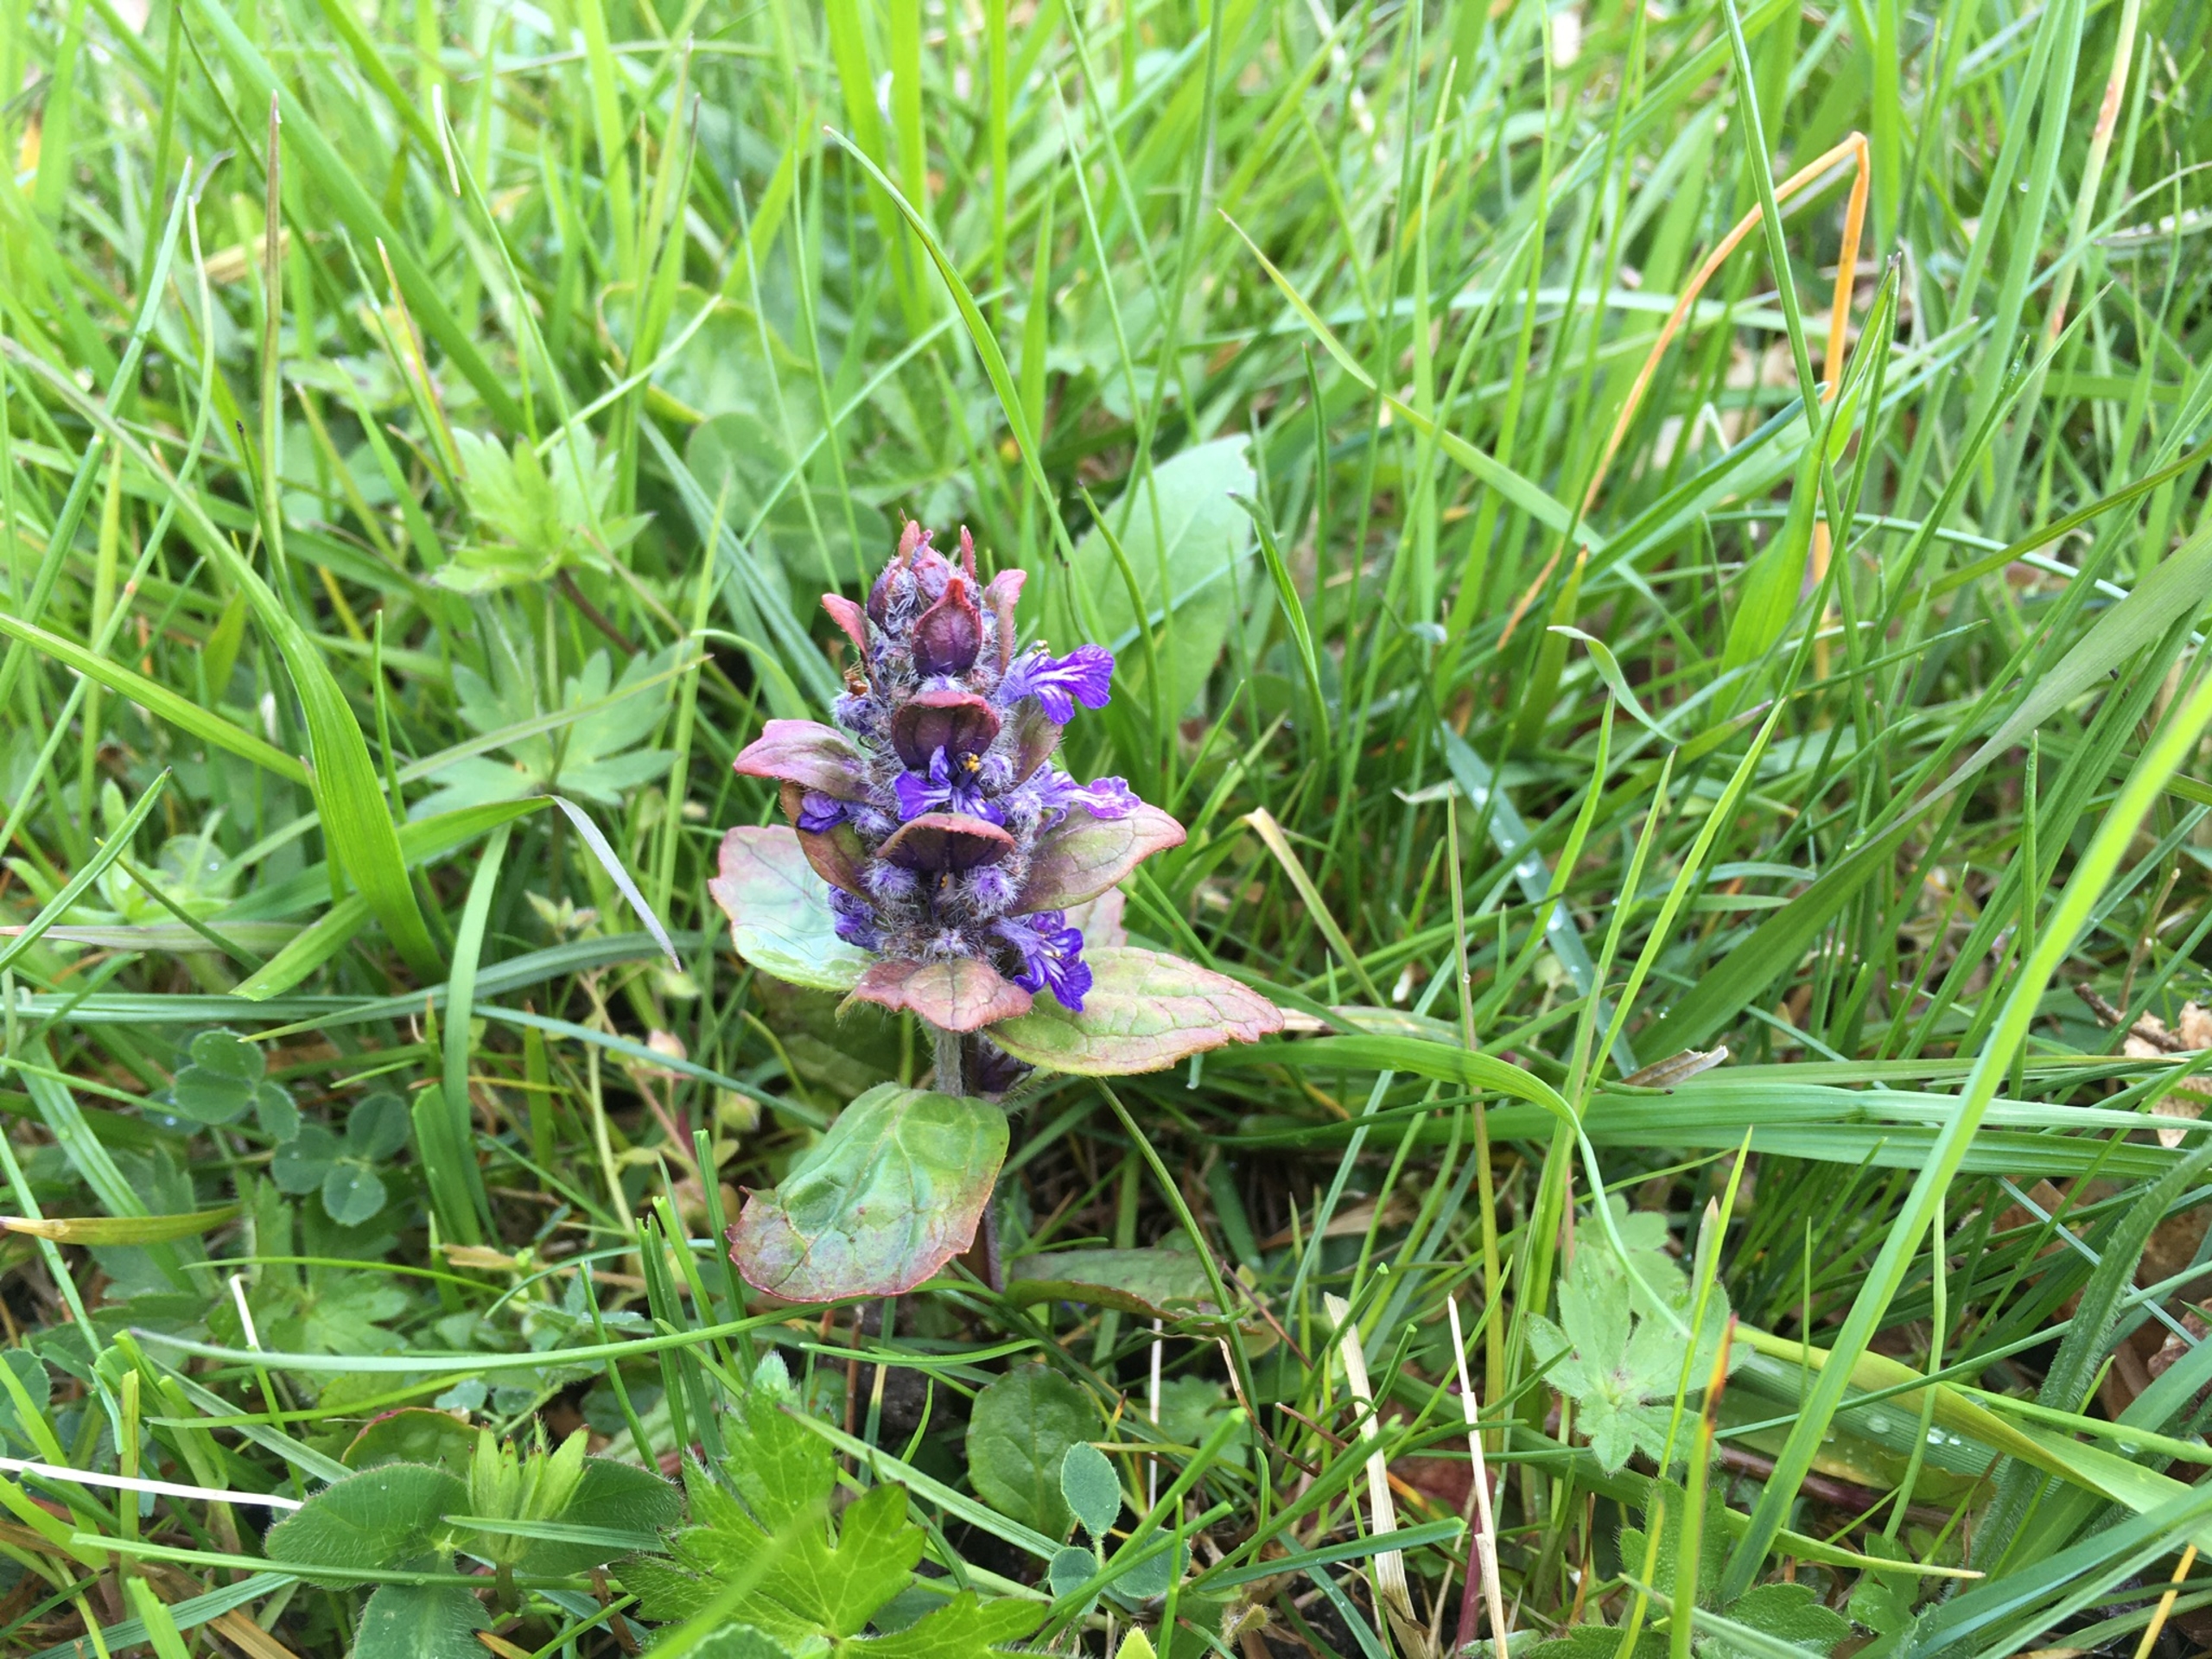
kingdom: Plantae
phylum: Tracheophyta
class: Magnoliopsida
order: Lamiales
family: Lamiaceae
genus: Ajuga
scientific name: Ajuga reptans
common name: Krybende læbeløs
